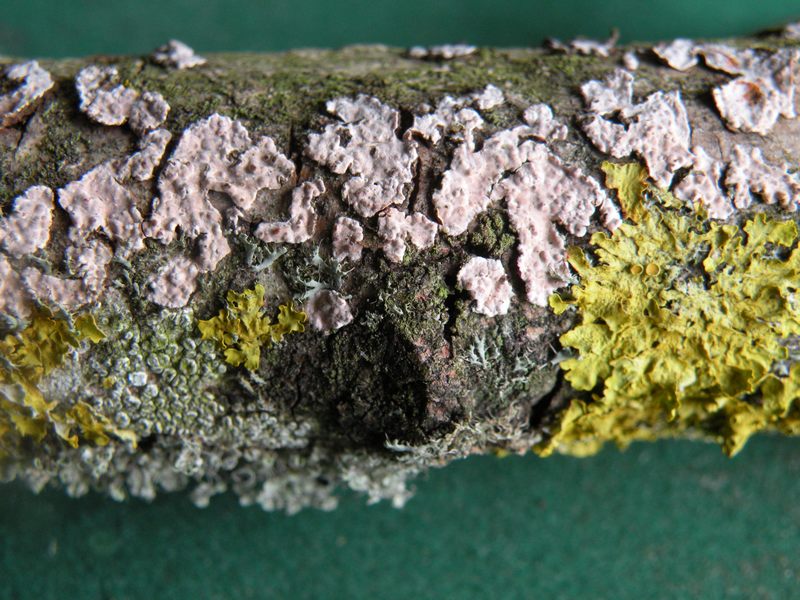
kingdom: Fungi
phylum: Basidiomycota
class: Agaricomycetes
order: Russulales
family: Peniophoraceae
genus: Peniophora
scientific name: Peniophora polygonia
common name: polygon-voksskind
